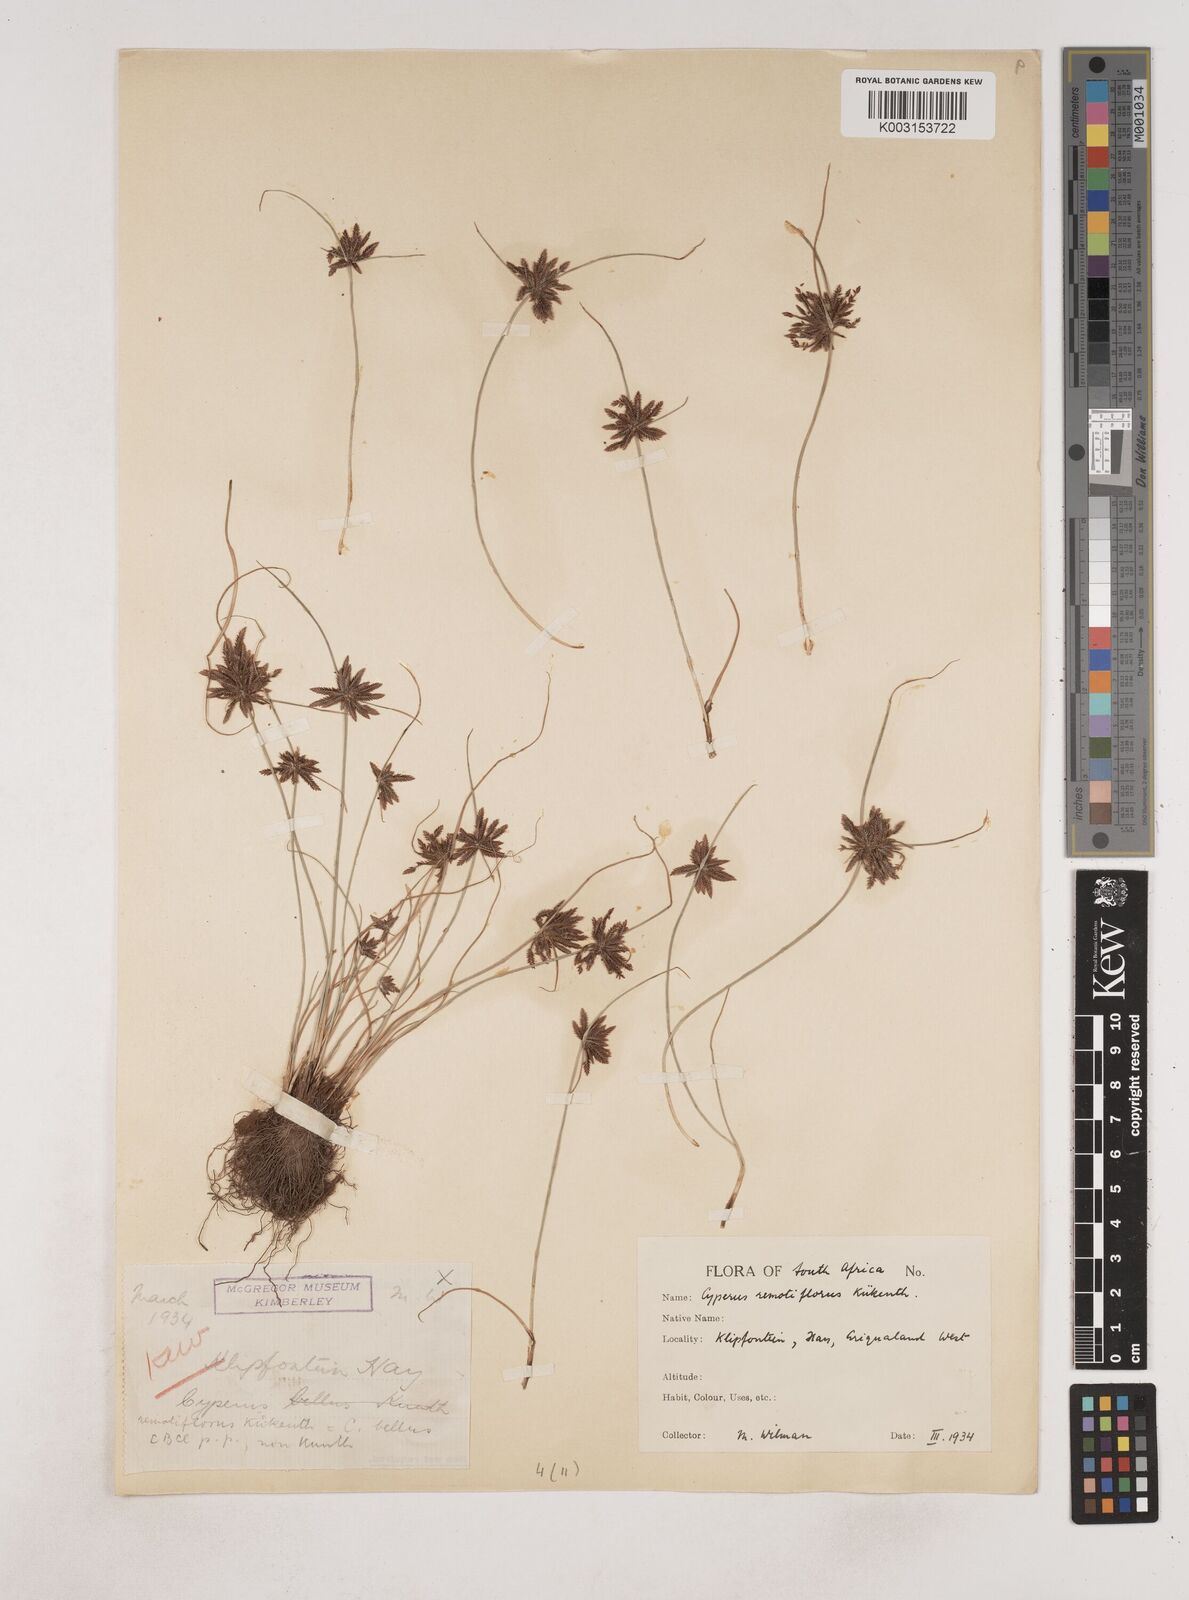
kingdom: Plantae
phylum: Tracheophyta
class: Liliopsida
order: Poales
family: Cyperaceae
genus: Cyperus
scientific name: Cyperus remotiflorus
